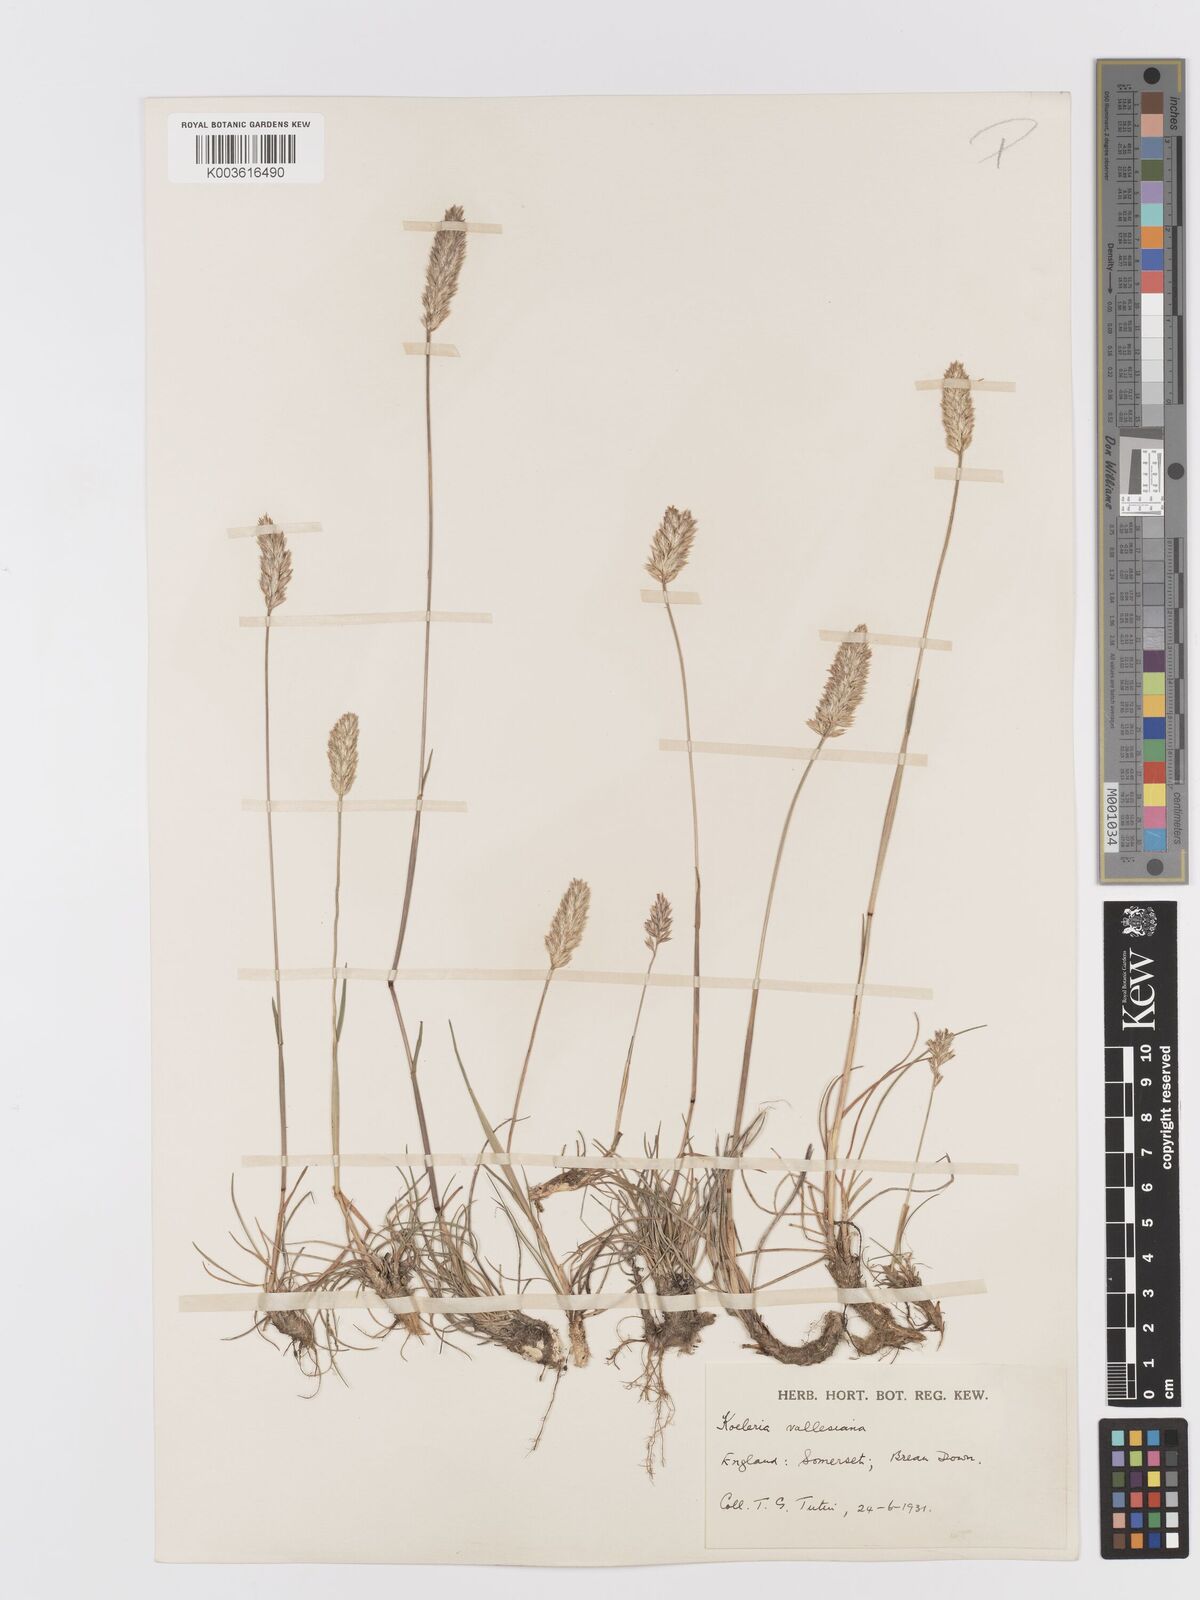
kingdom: Plantae
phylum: Tracheophyta
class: Liliopsida
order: Poales
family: Poaceae
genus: Koeleria
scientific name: Koeleria vallesiana
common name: Somerset hair-grass
